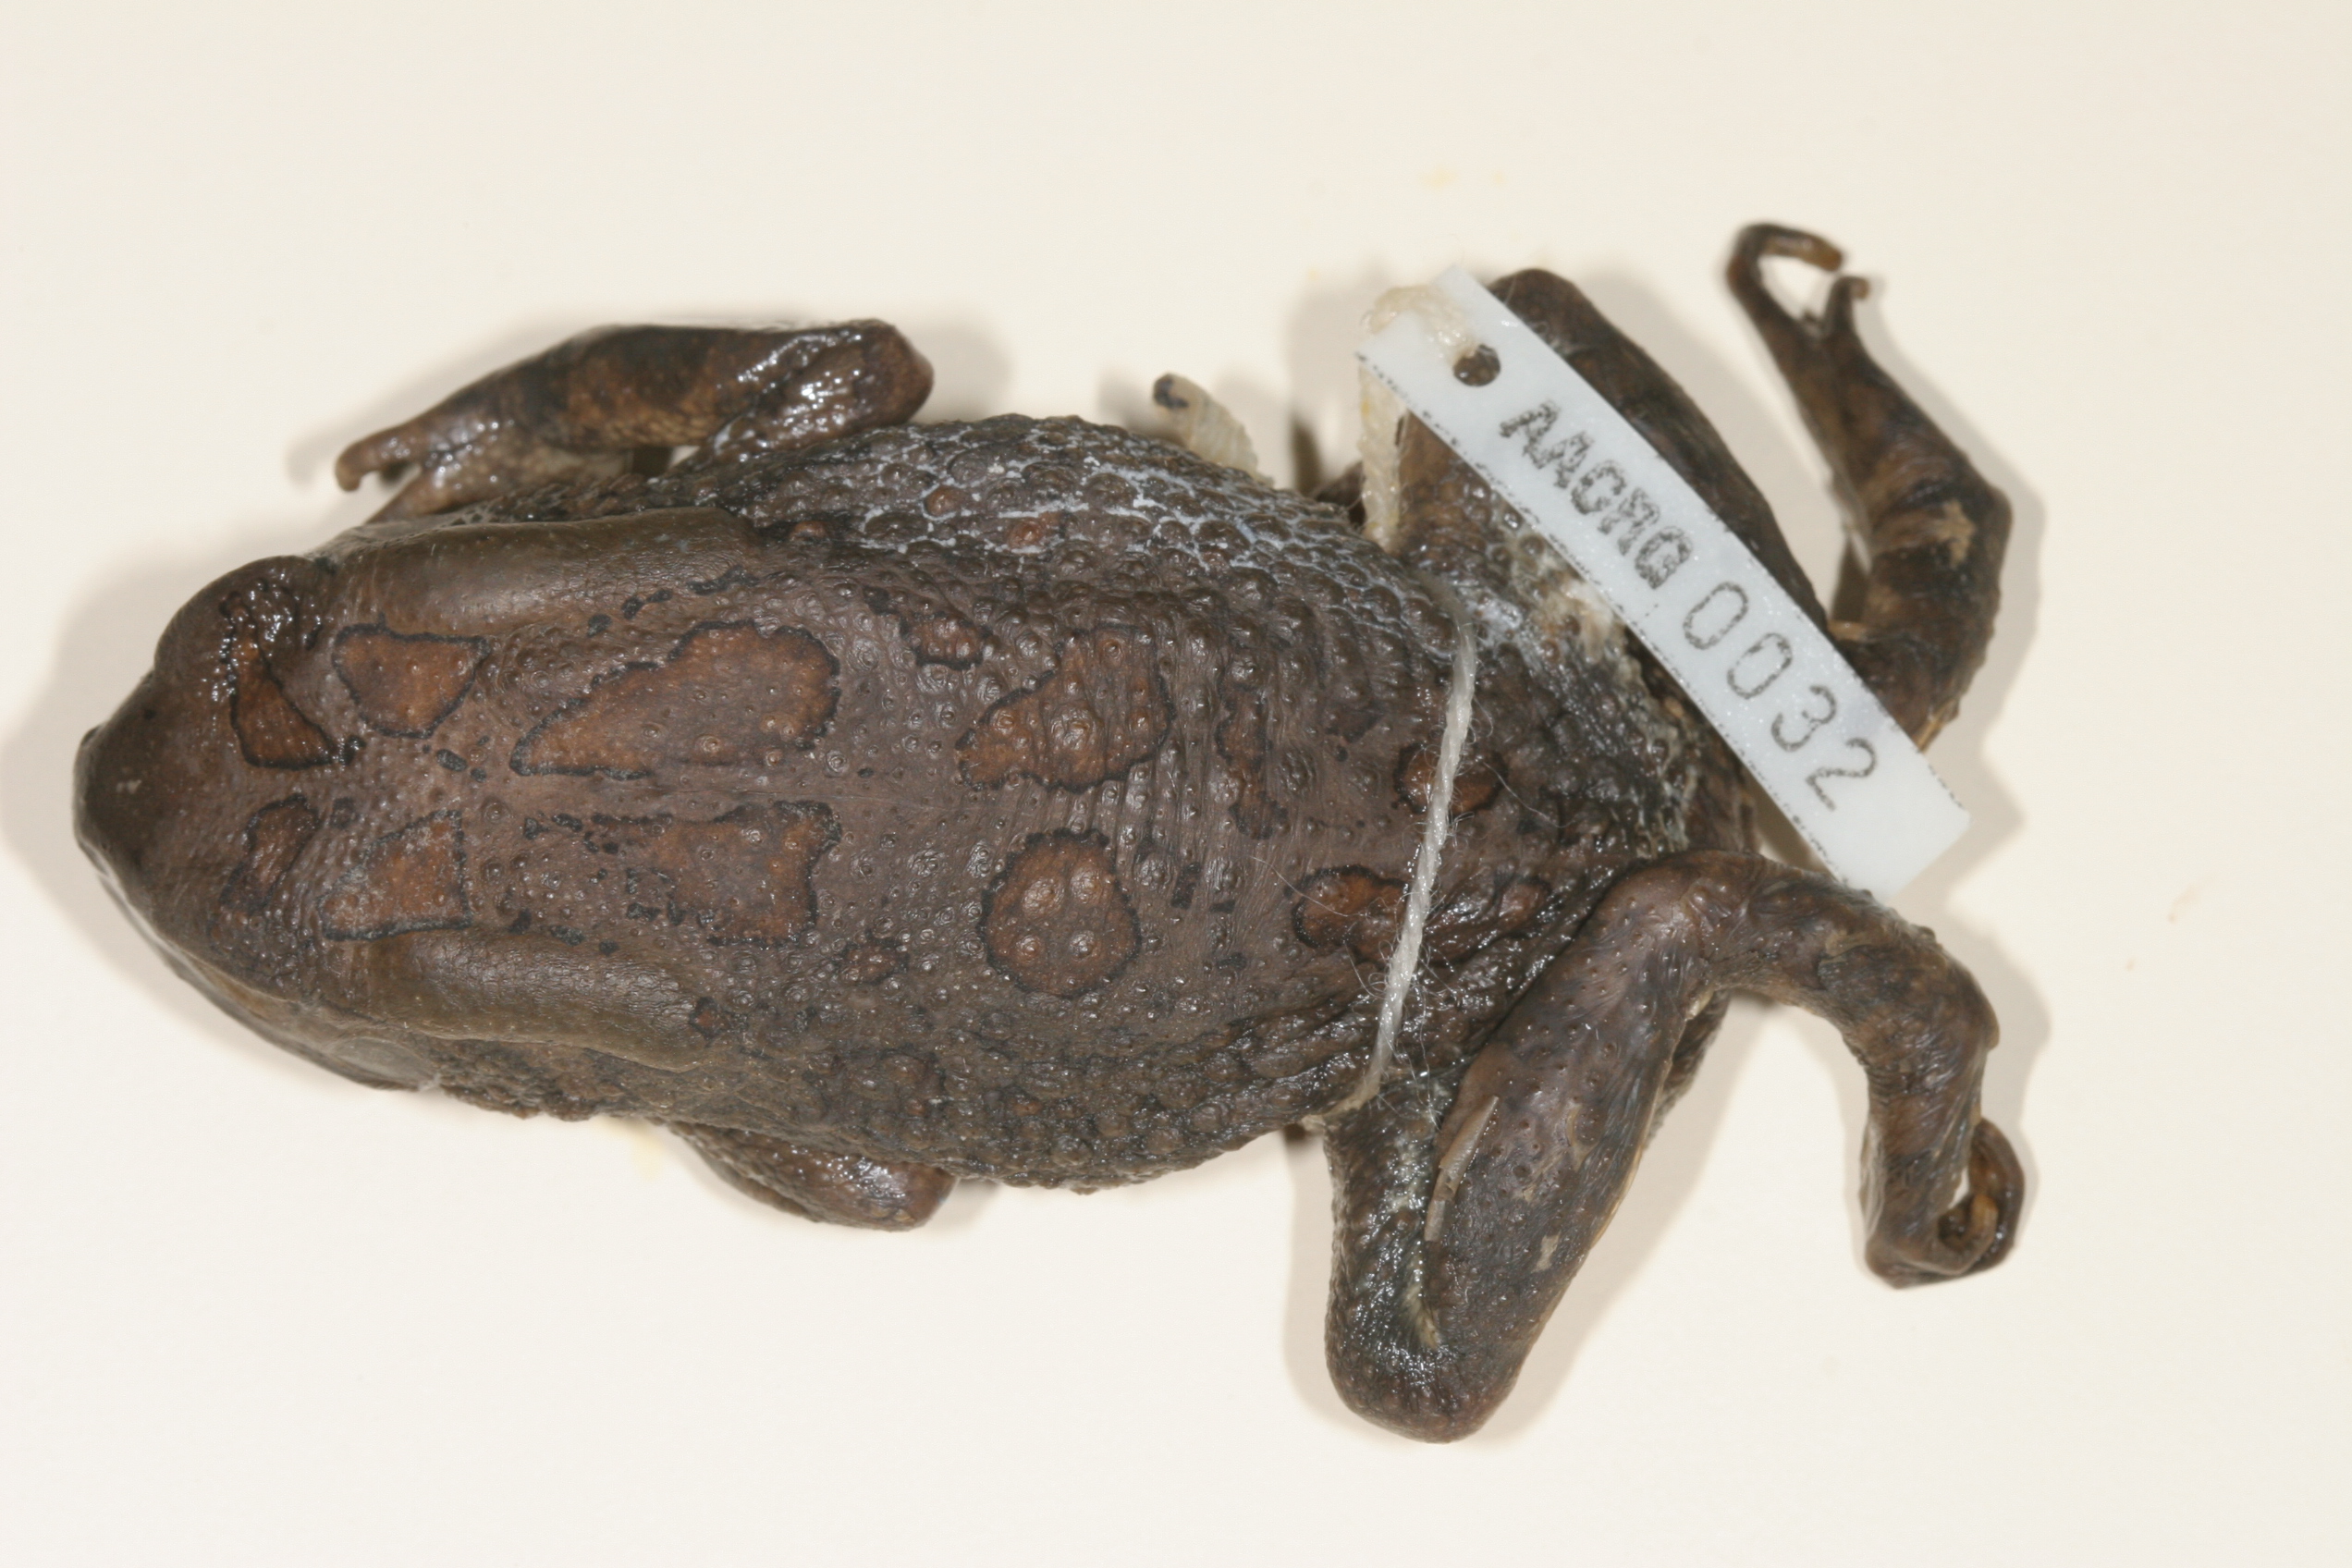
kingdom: Animalia
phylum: Chordata
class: Amphibia
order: Anura
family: Bufonidae
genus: Sclerophrys
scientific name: Sclerophrys garmani
